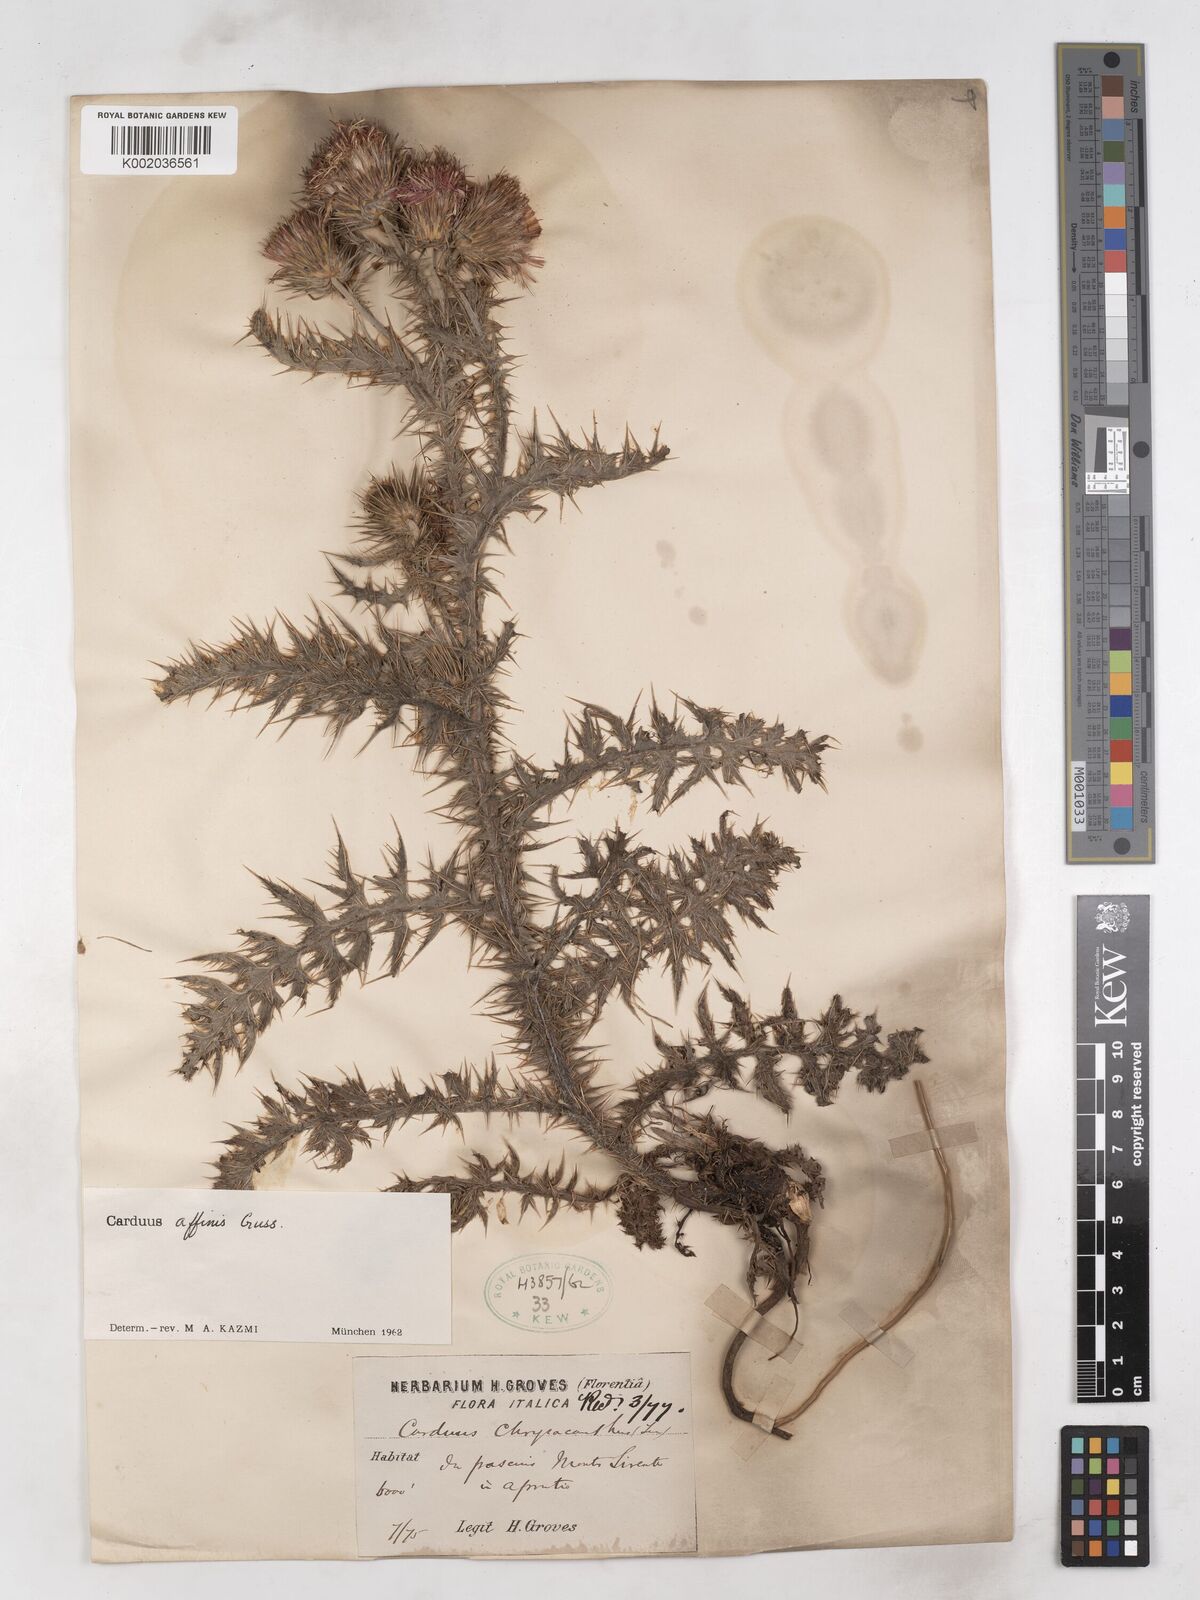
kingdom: Plantae
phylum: Tracheophyta
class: Magnoliopsida
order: Asterales
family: Asteraceae
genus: Carduus
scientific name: Carduus affinis
